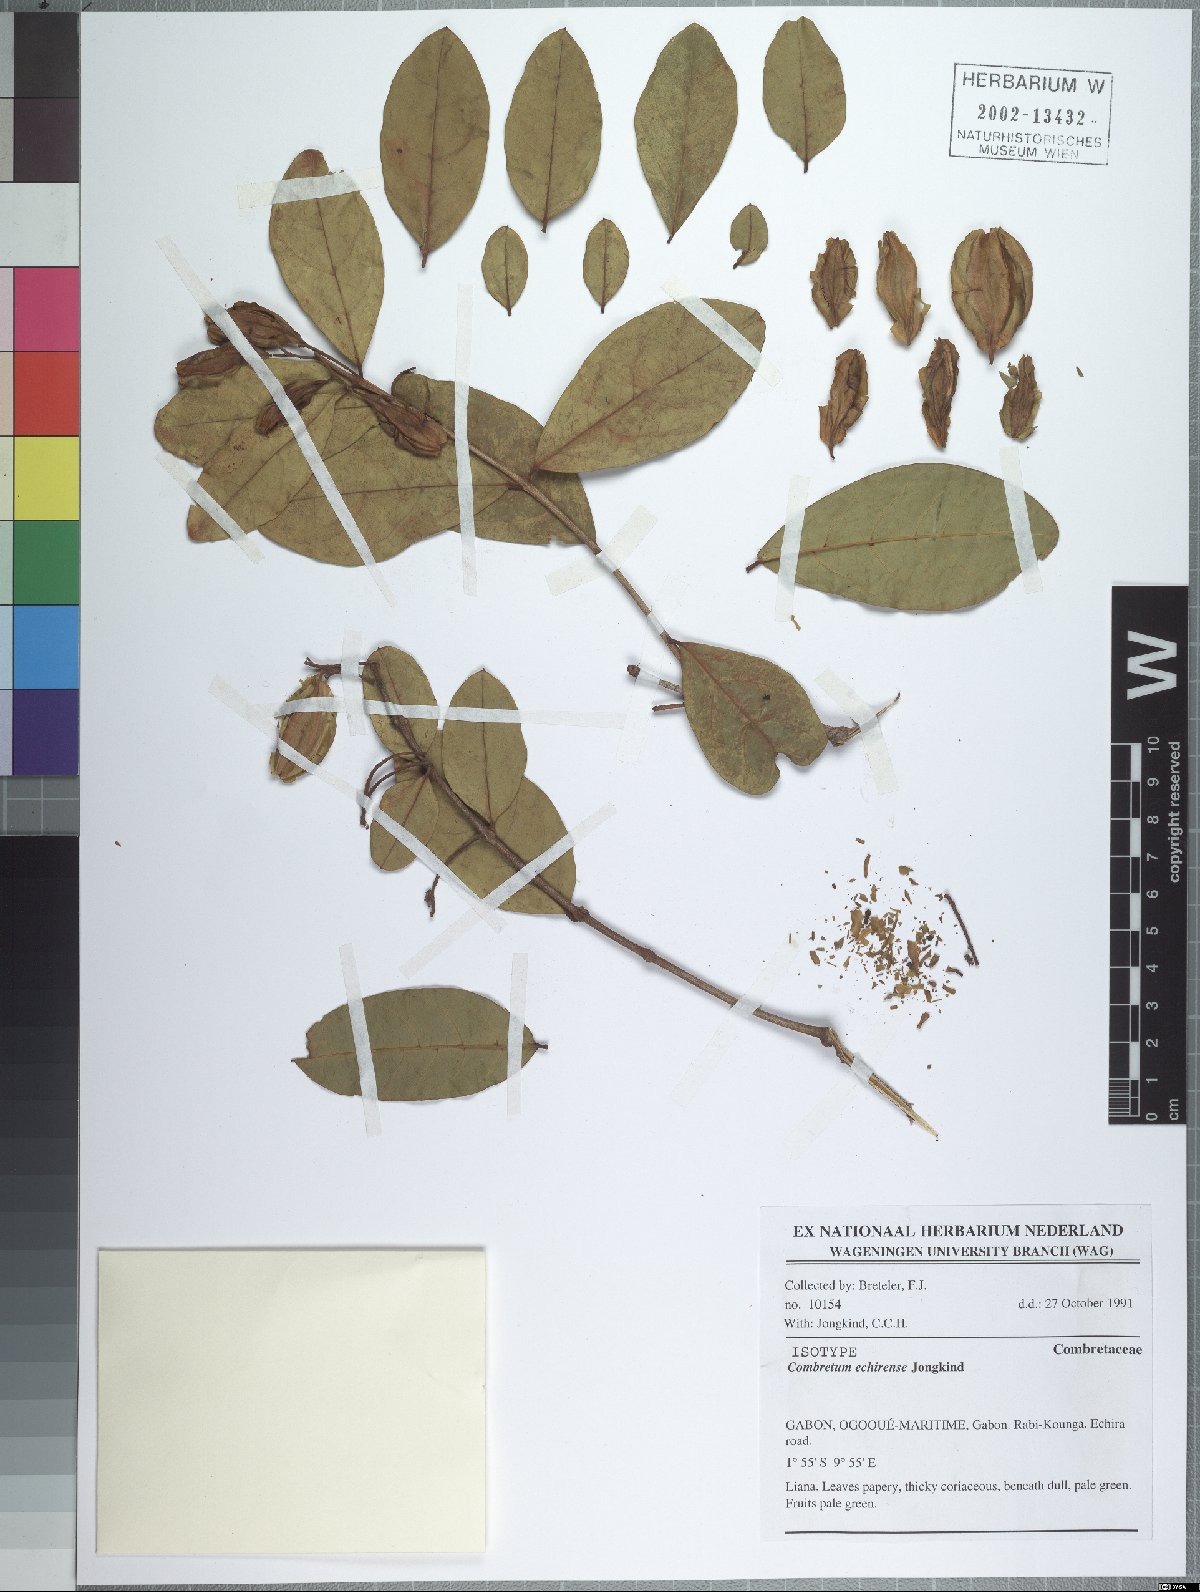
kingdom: Plantae
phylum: Tracheophyta
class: Magnoliopsida
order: Myrtales
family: Combretaceae
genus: Combretum
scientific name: Combretum echirense
